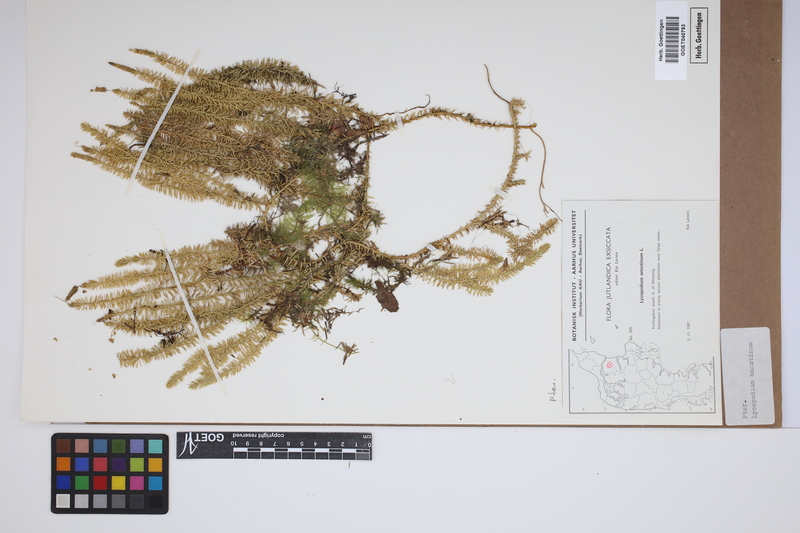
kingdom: Plantae
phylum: Tracheophyta
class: Lycopodiopsida
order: Lycopodiales
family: Lycopodiaceae
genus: Spinulum
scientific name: Spinulum annotinum
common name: Interrupted club-moss
